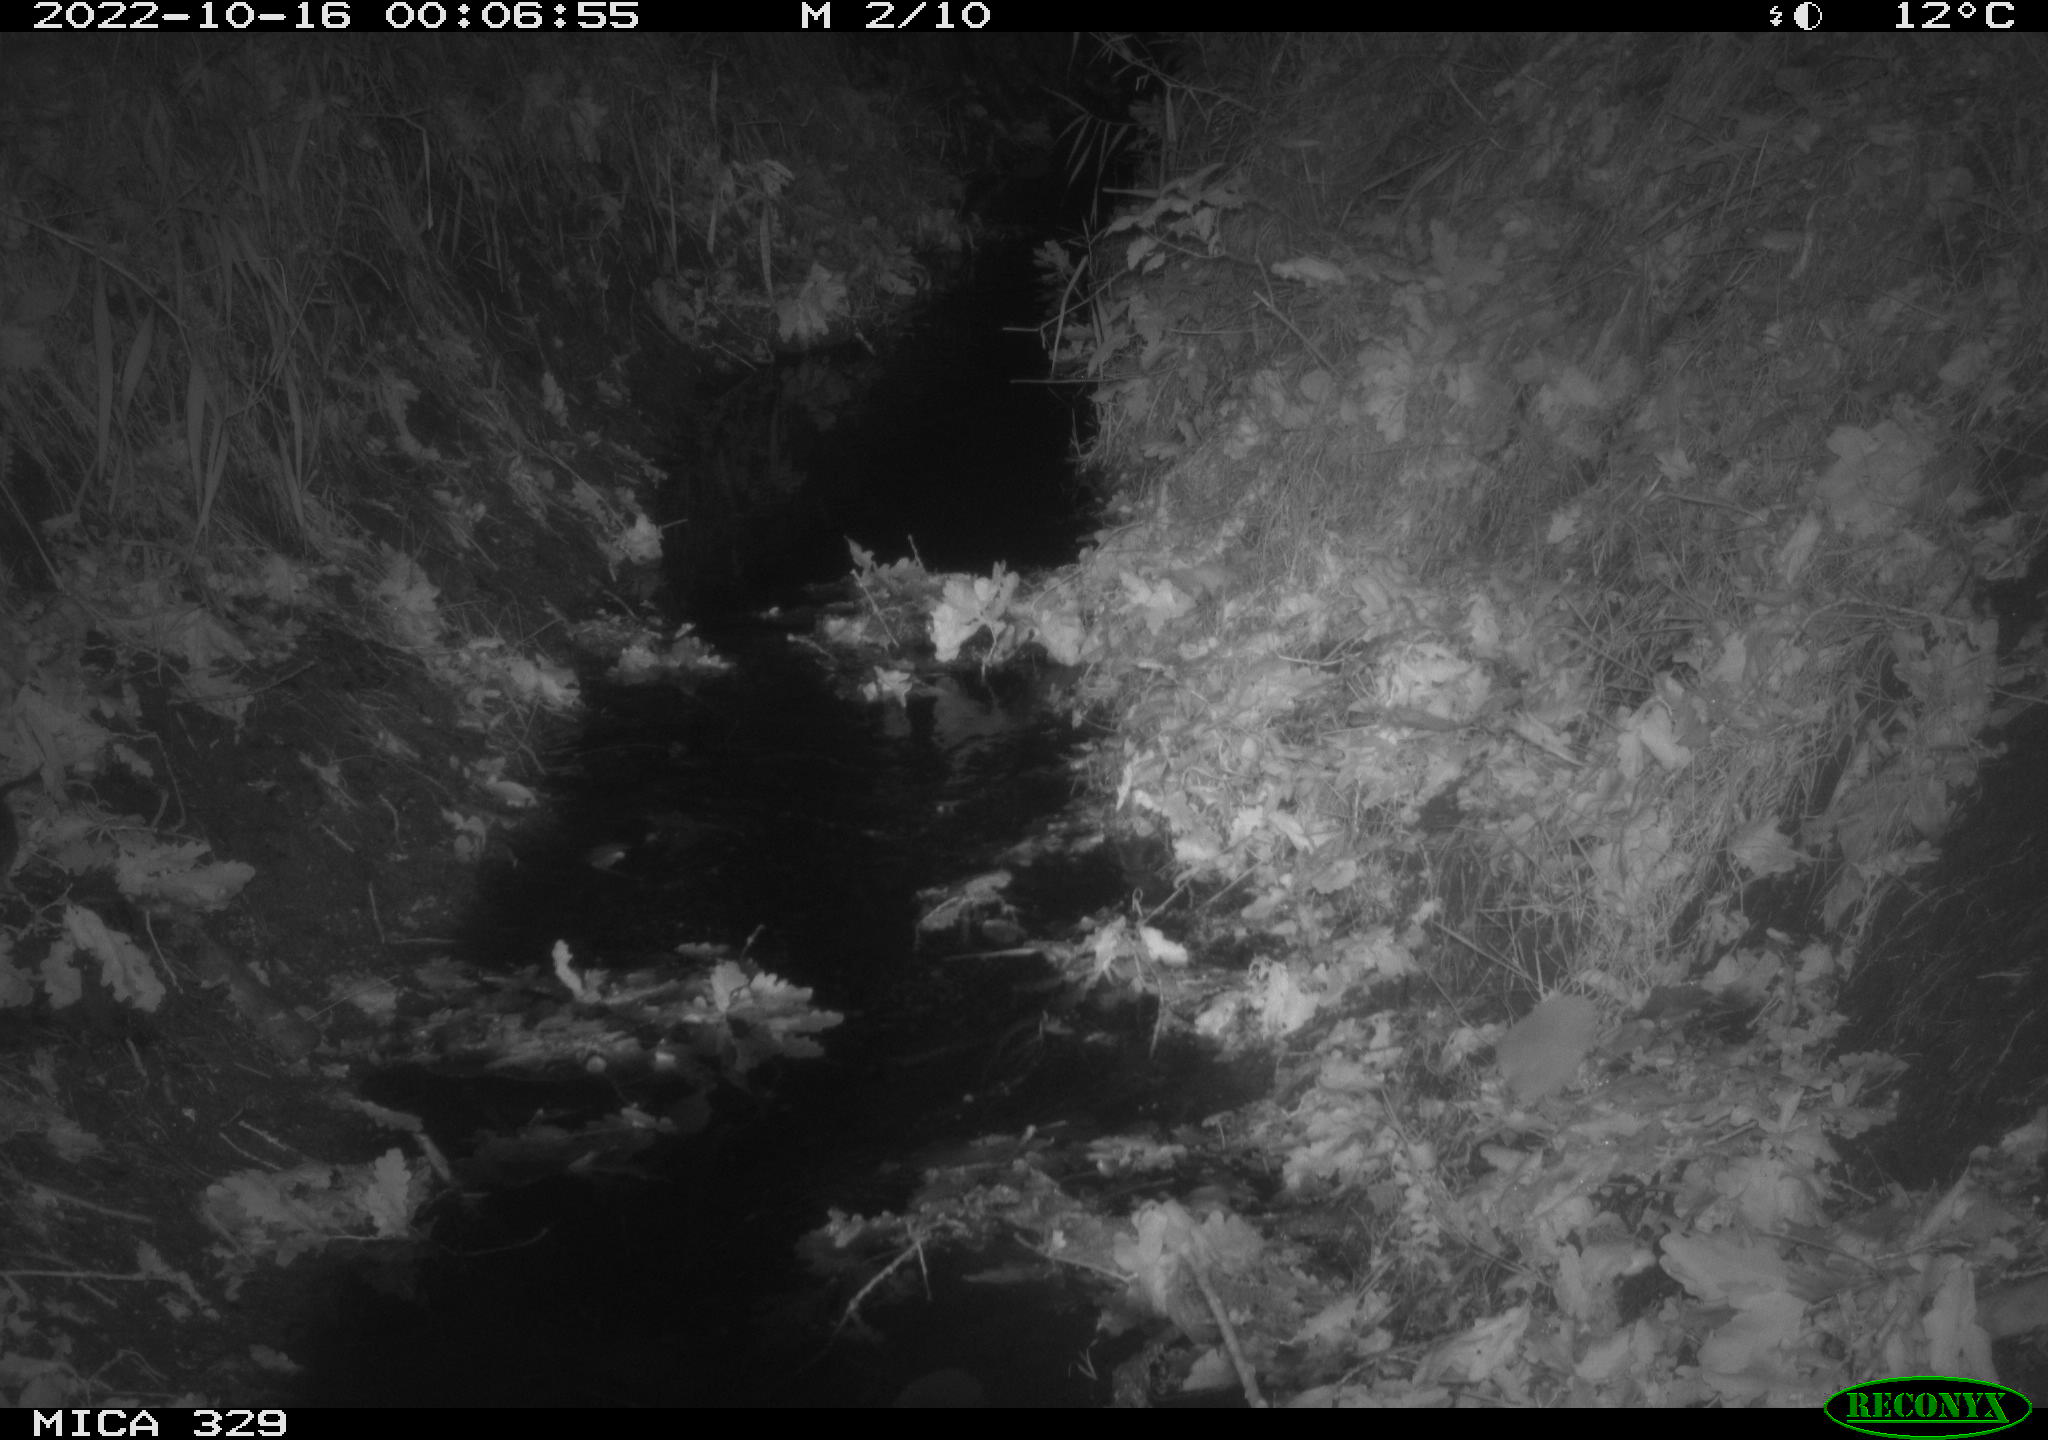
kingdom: Animalia
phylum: Chordata
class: Mammalia
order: Rodentia
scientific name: Rodentia
